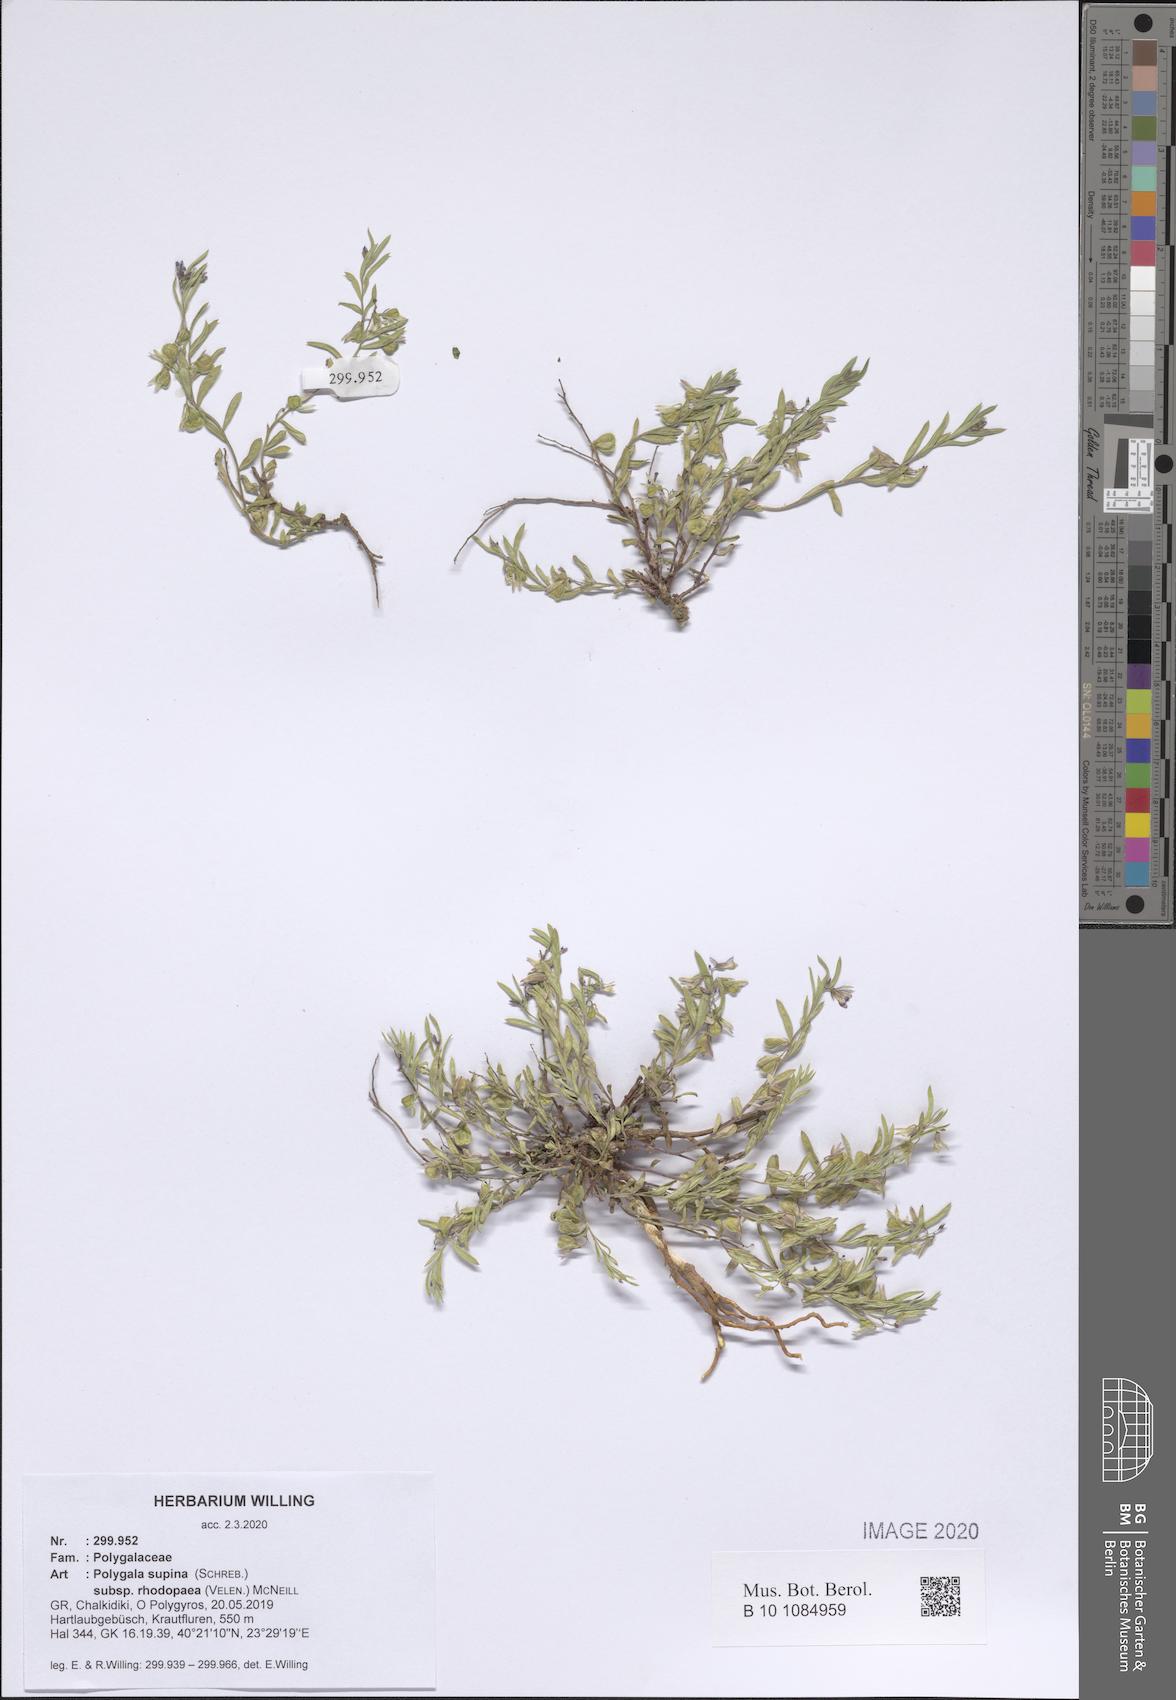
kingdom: Plantae
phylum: Tracheophyta
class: Magnoliopsida
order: Fabales
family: Polygalaceae
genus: Polygala
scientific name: Polygala supina
